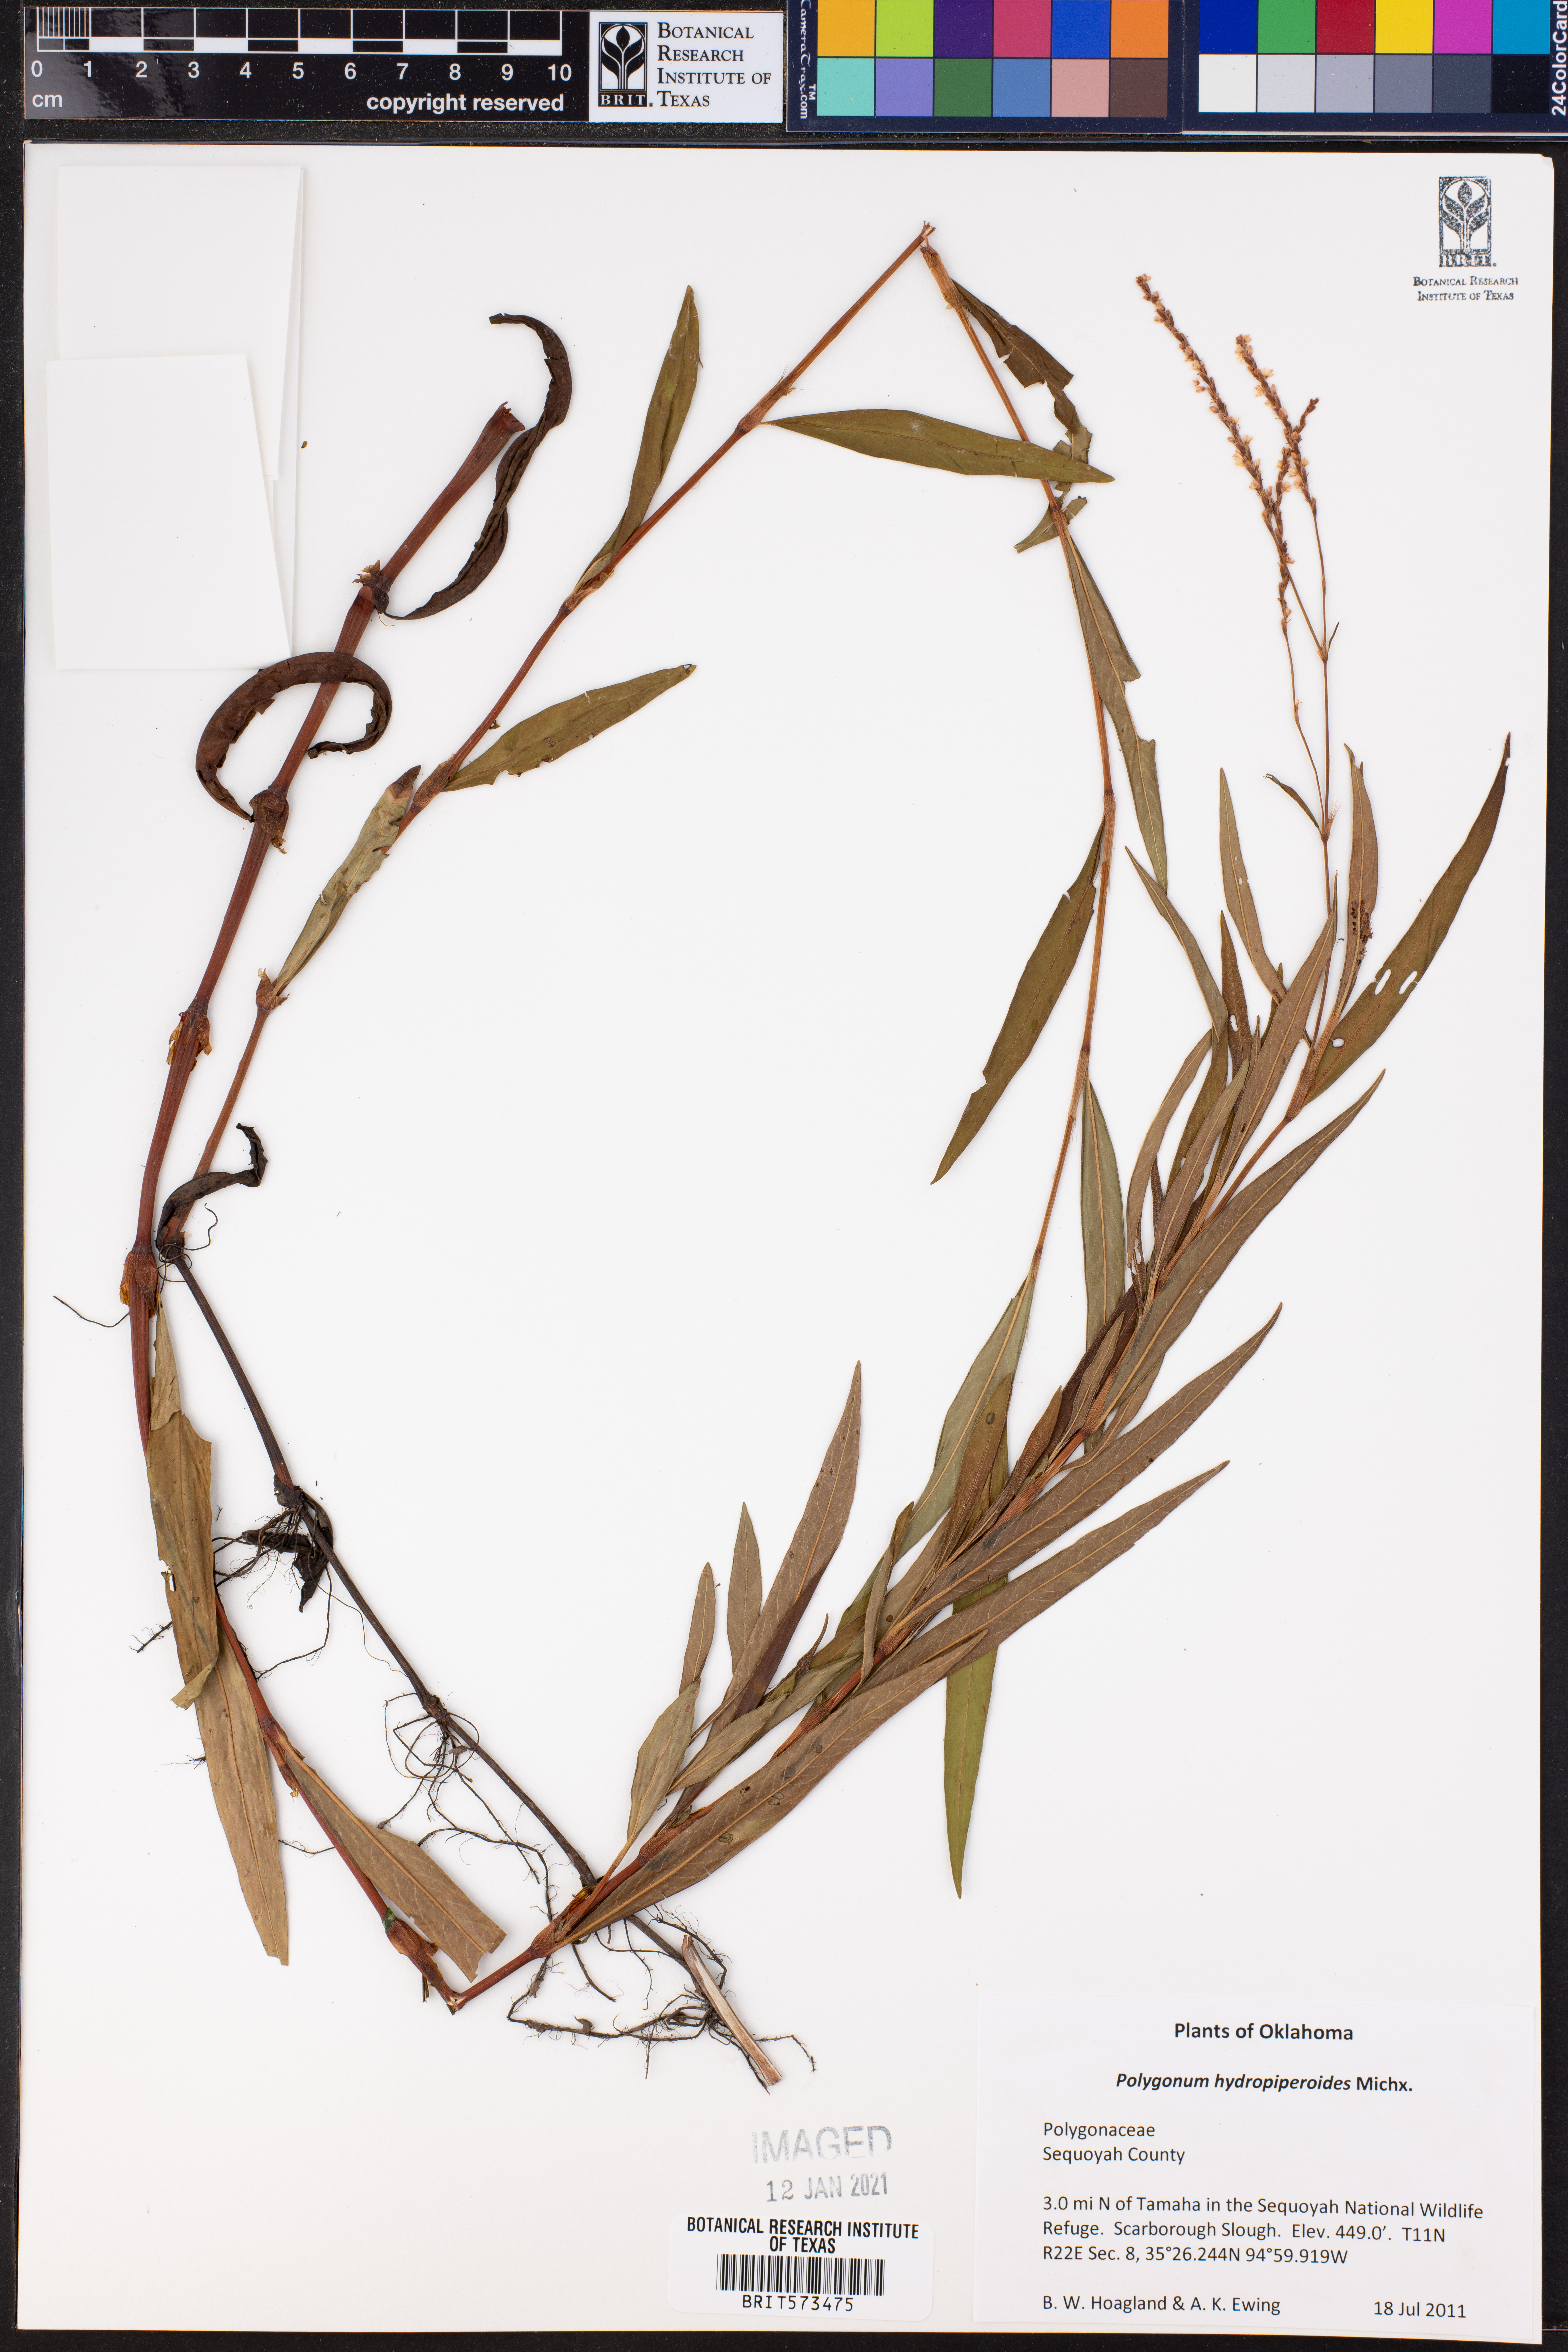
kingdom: Plantae
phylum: Tracheophyta
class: Magnoliopsida
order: Caryophyllales
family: Polygonaceae
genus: Persicaria
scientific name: Persicaria hydropiperoides
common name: Swamp smartweed
